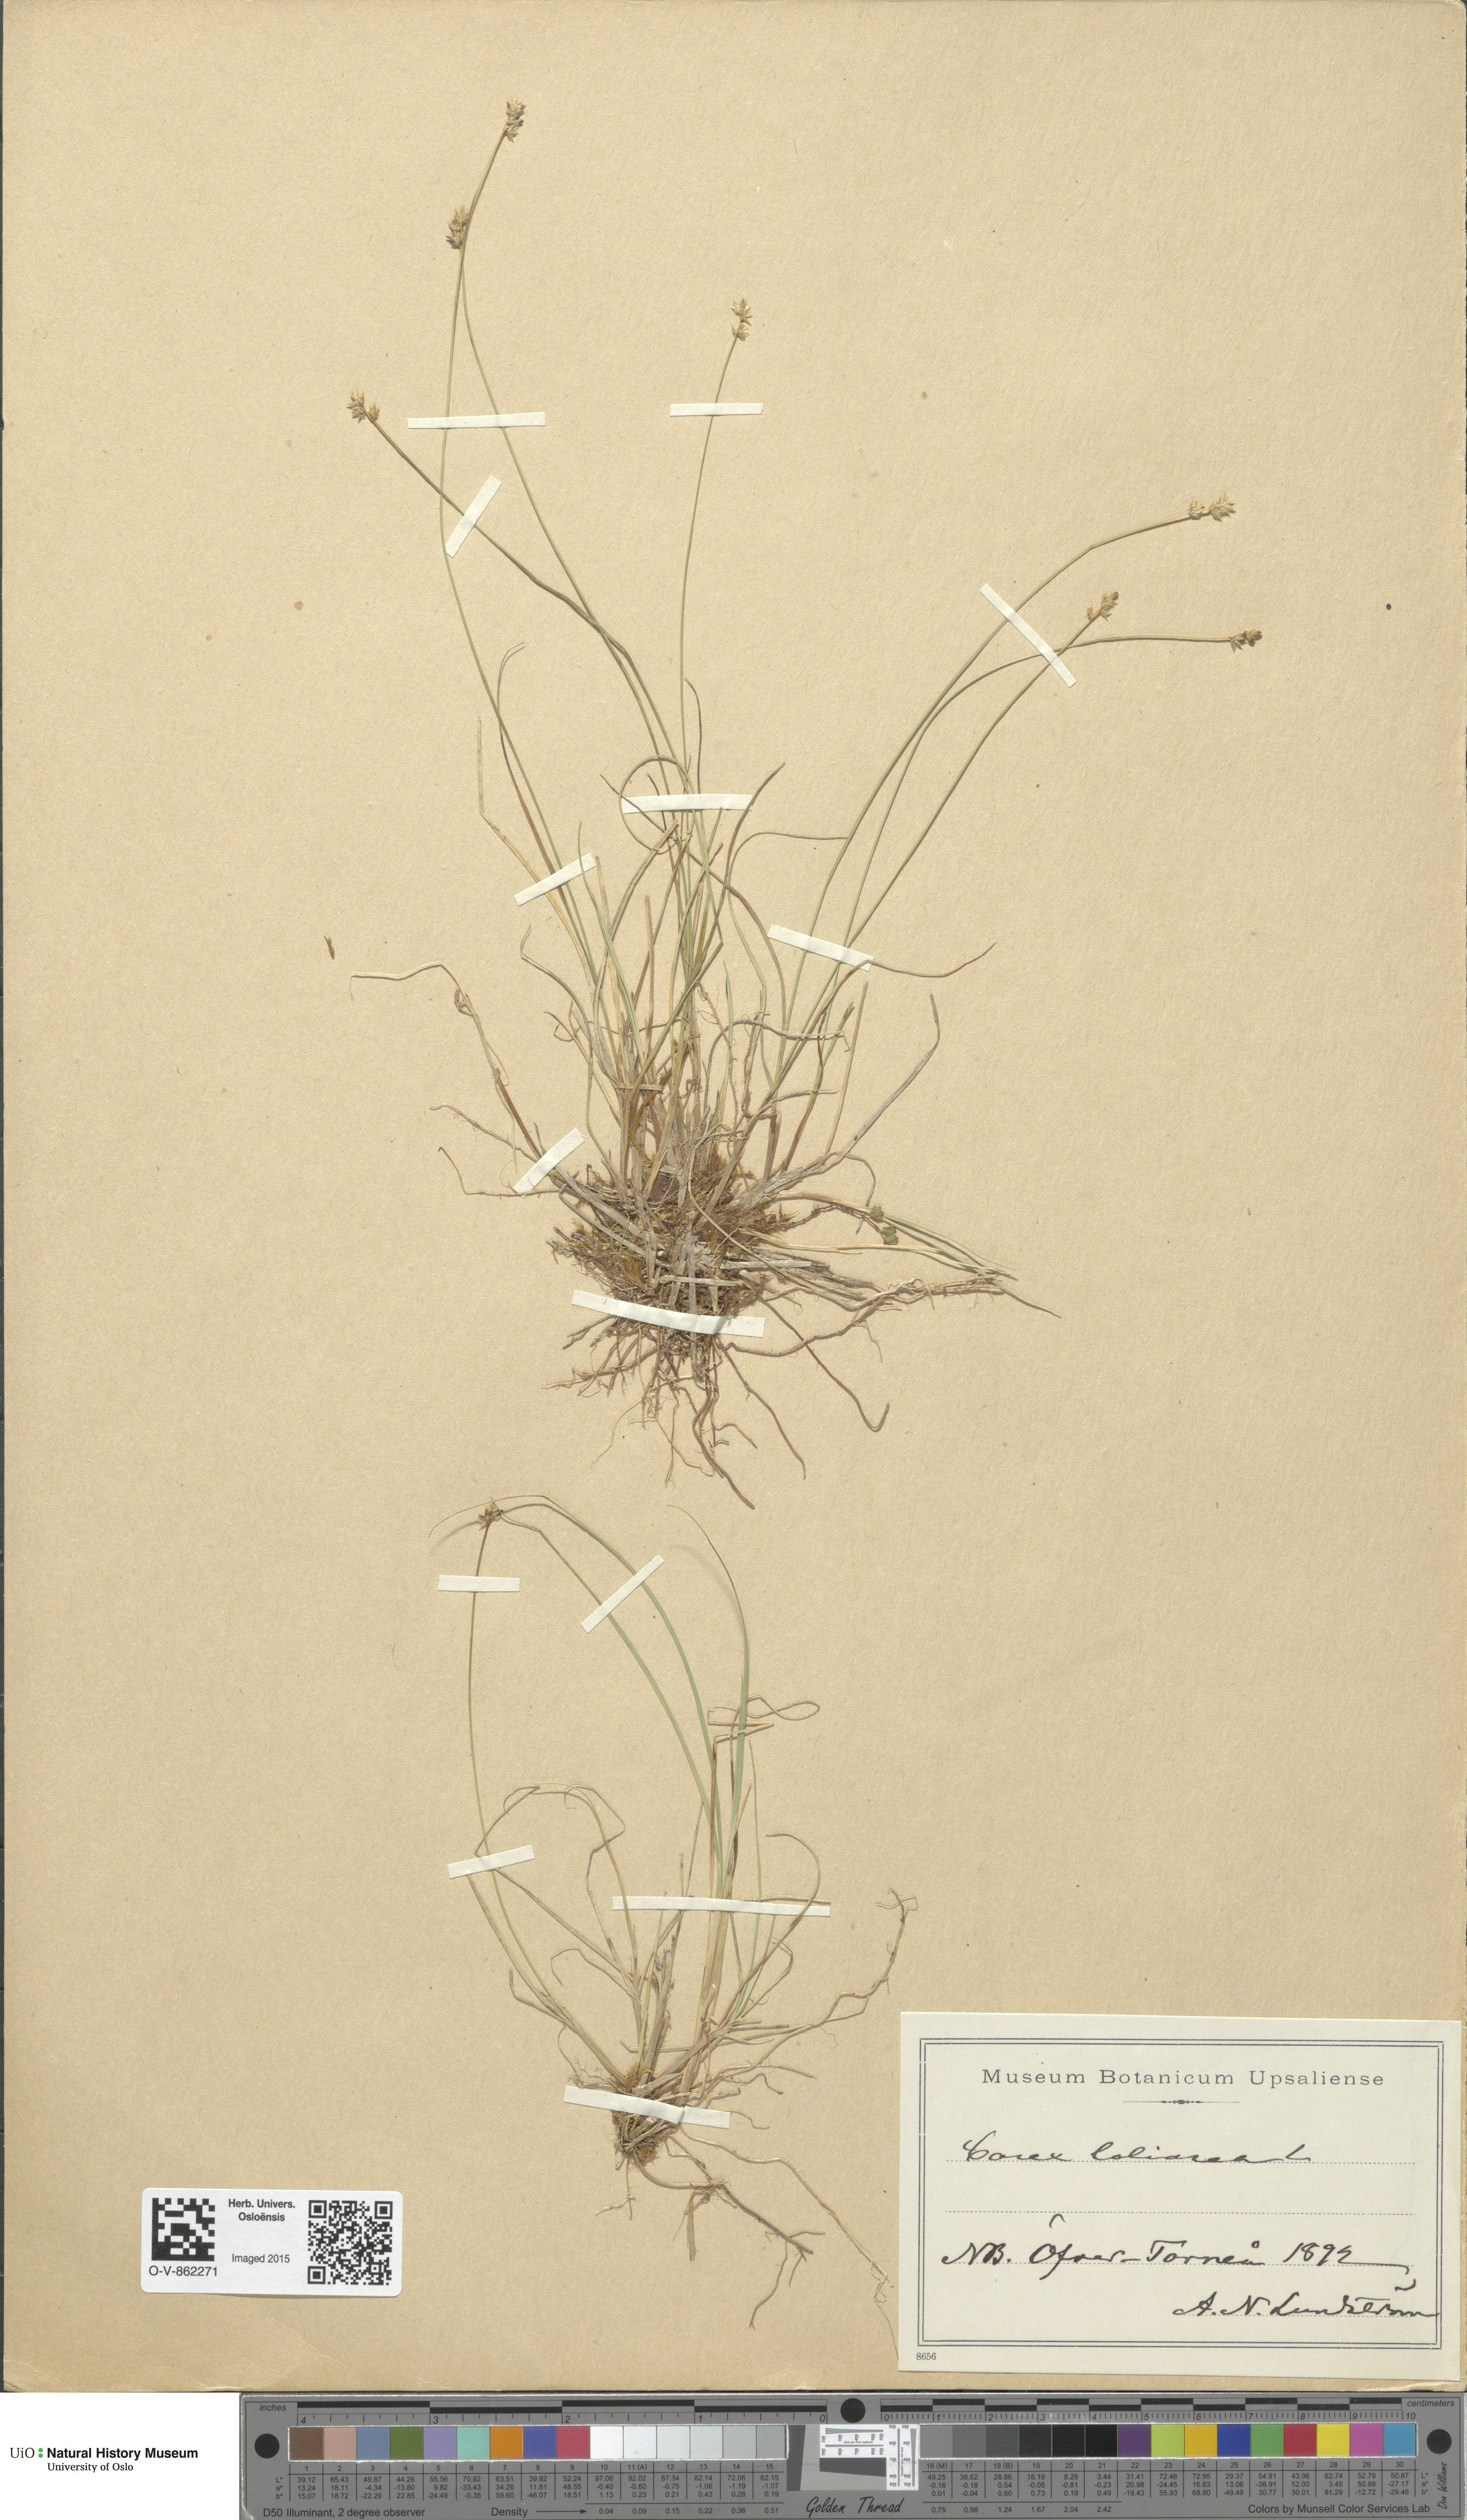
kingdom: Plantae
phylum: Tracheophyta
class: Liliopsida
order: Poales
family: Cyperaceae
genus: Carex
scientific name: Carex loliacea
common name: Ryegrass sedge
